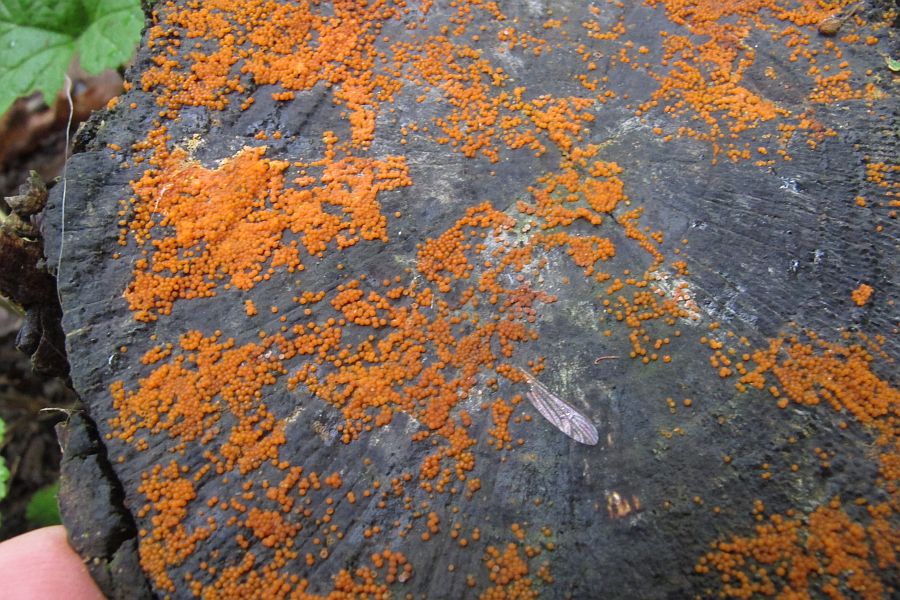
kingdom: Fungi
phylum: Ascomycota
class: Sordariomycetes
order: Hypocreales
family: Nectriaceae
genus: Hydropisphaera
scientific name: Hydropisphaera peziza
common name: skålformet gyldenkerne
